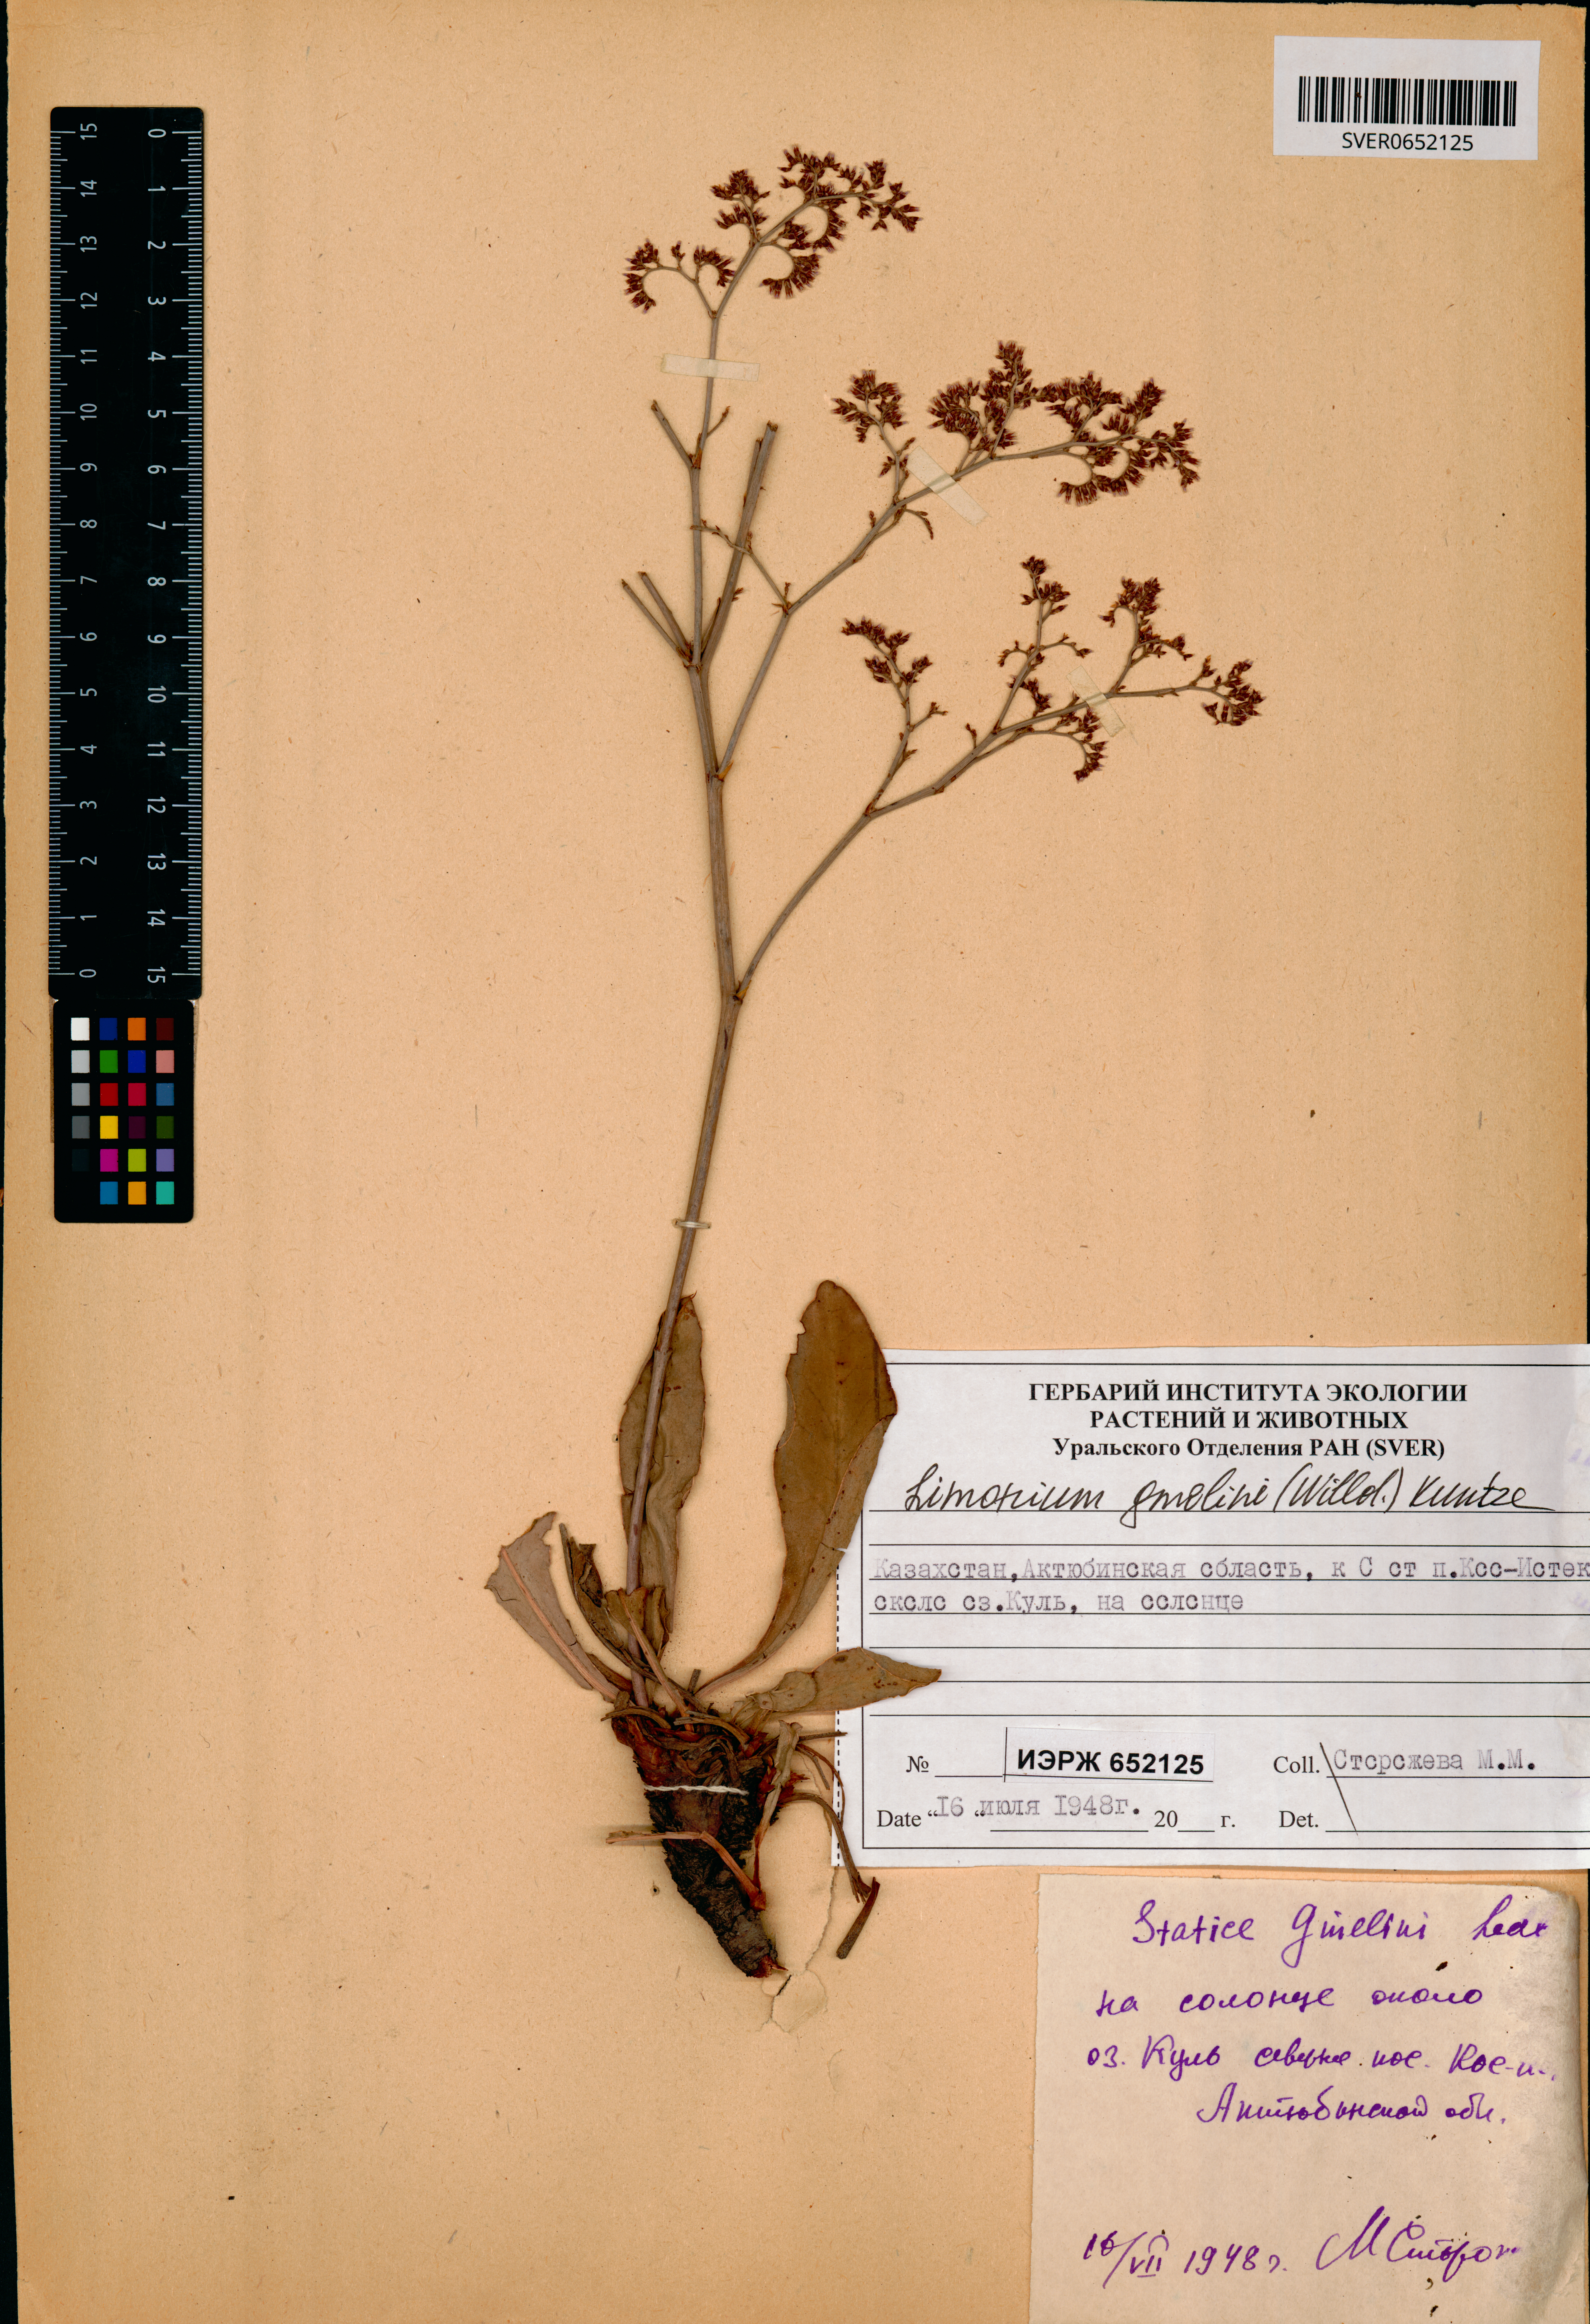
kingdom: Plantae
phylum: Tracheophyta
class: Magnoliopsida
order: Caryophyllales
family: Plumbaginaceae
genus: Limonium
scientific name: Limonium gmelini
